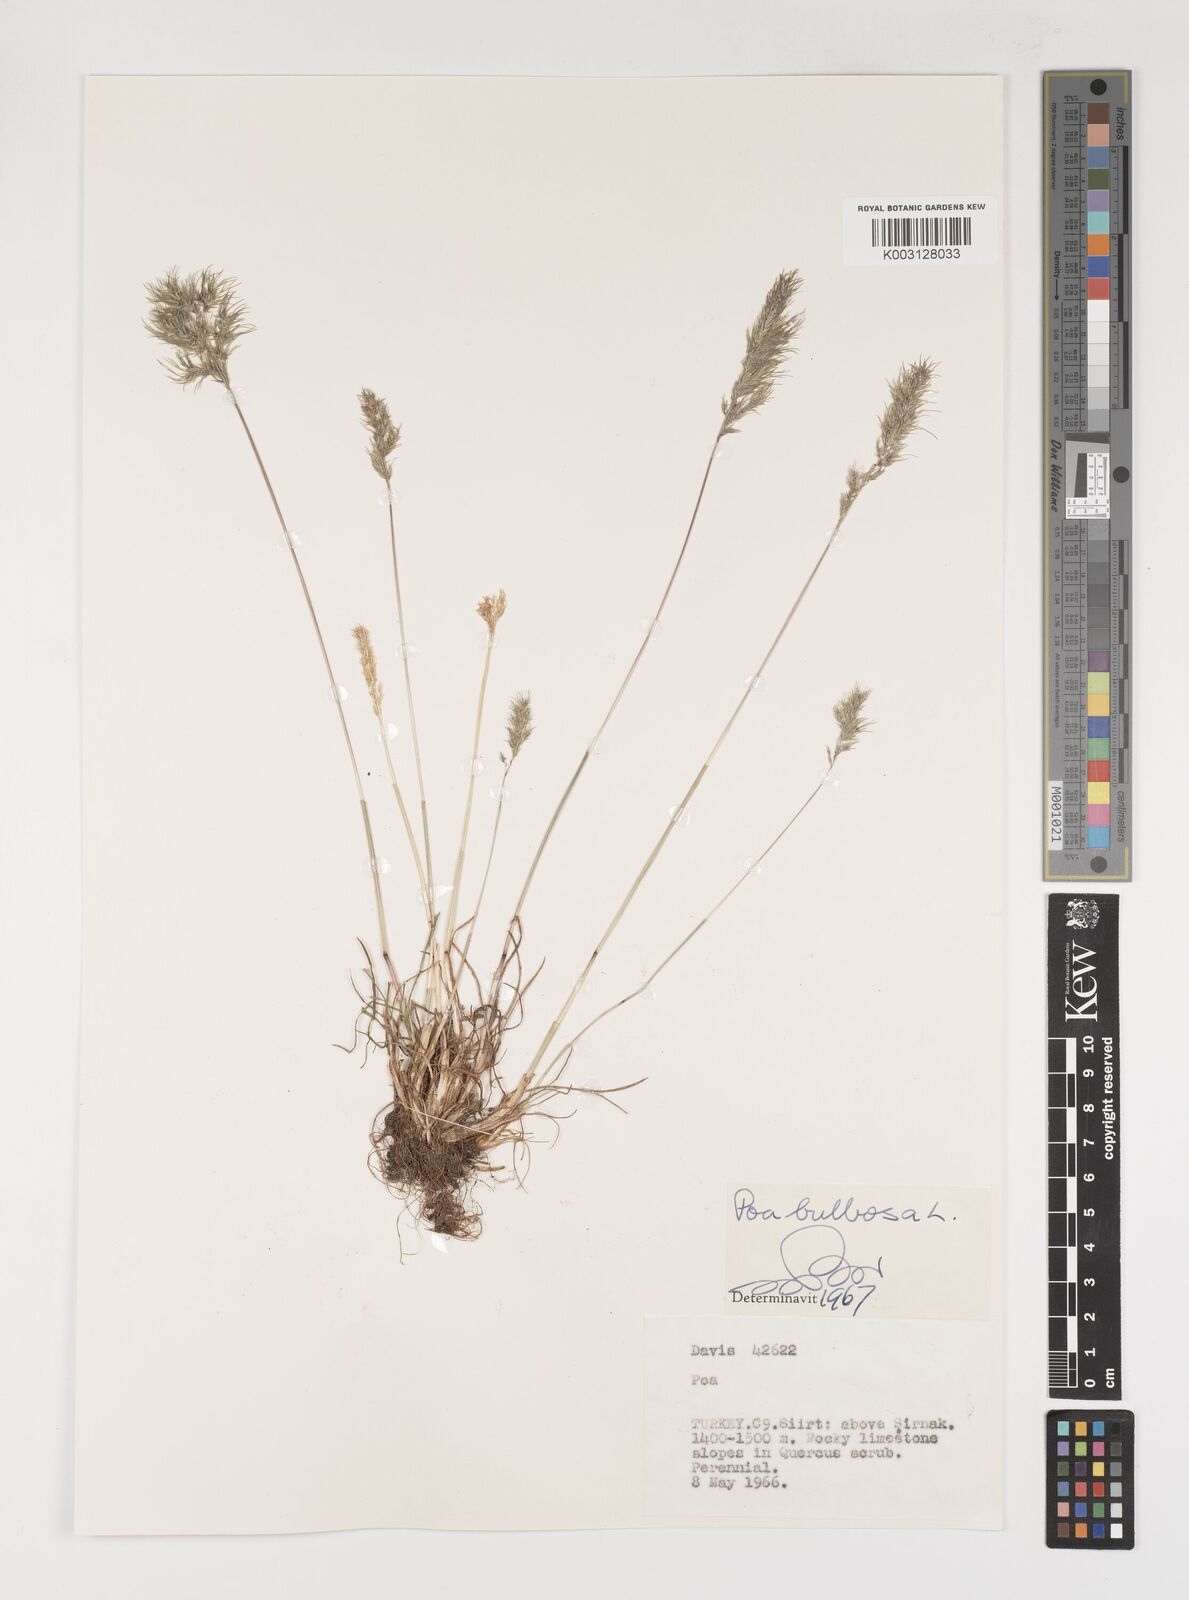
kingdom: Plantae
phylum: Tracheophyta
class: Liliopsida
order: Poales
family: Poaceae
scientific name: Poaceae
